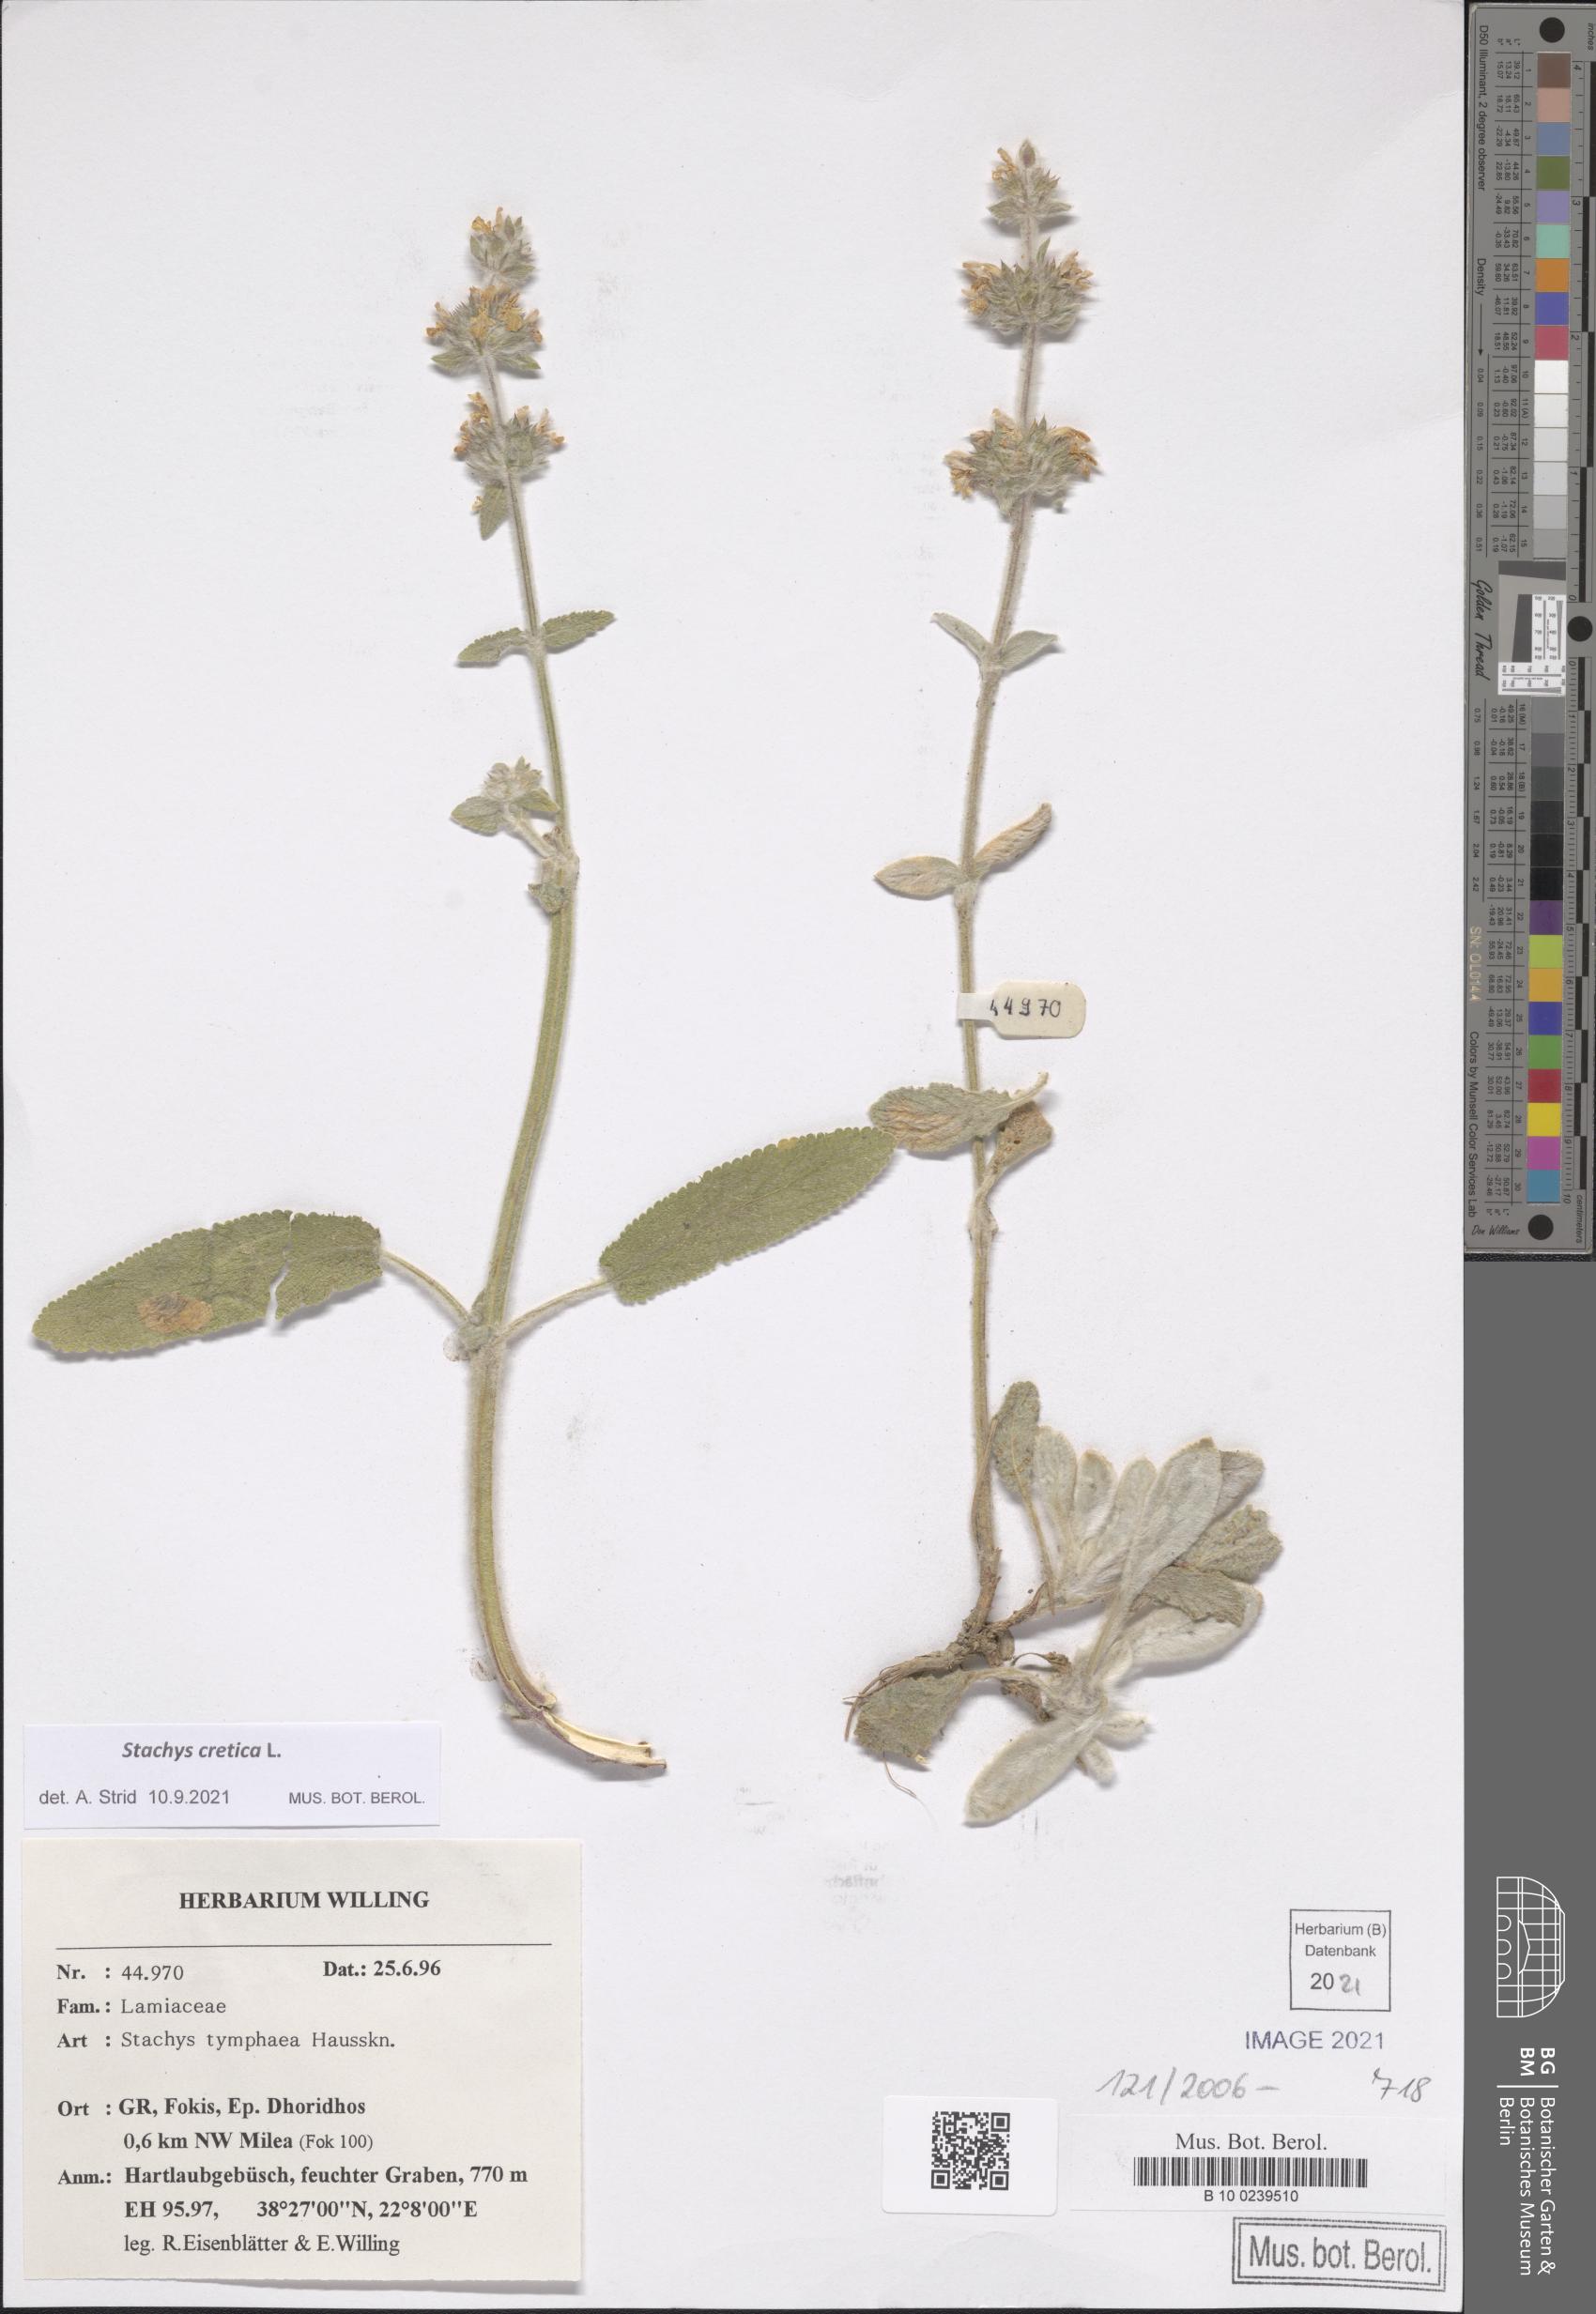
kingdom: Plantae
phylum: Tracheophyta
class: Magnoliopsida
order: Lamiales
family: Lamiaceae
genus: Stachys
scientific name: Stachys cretica
